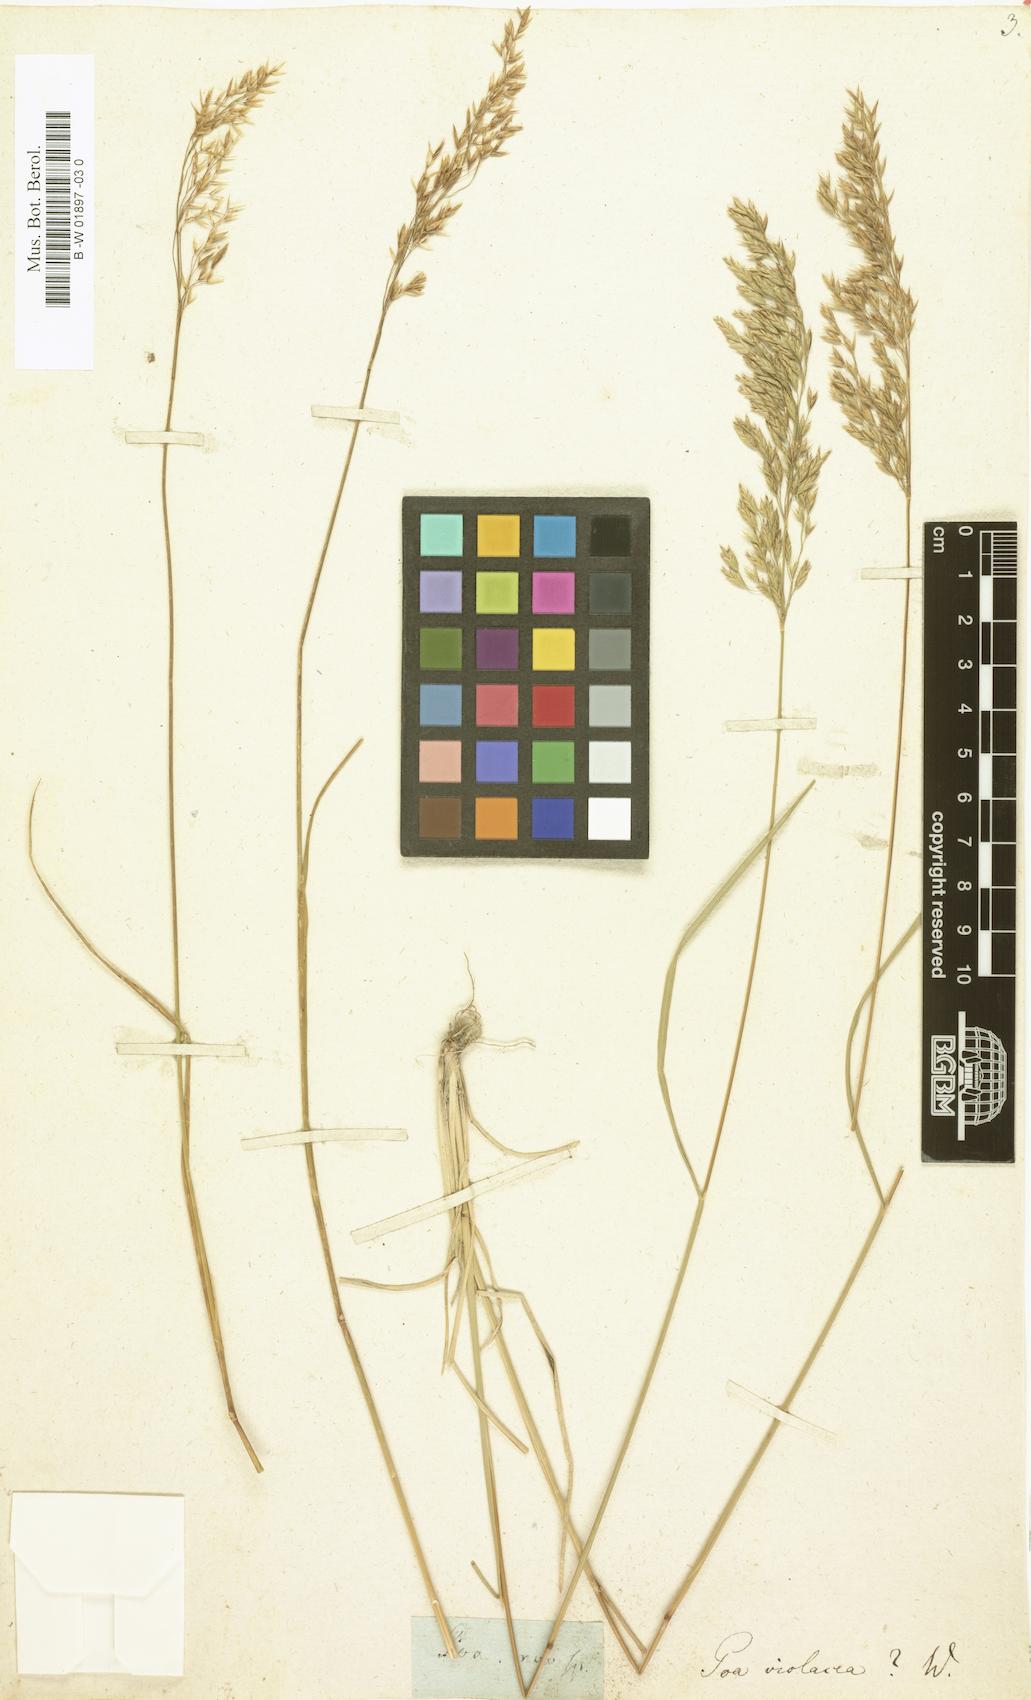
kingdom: Plantae
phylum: Tracheophyta
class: Liliopsida
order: Poales
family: Poaceae
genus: Bellardiochloa
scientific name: Bellardiochloa variegata
